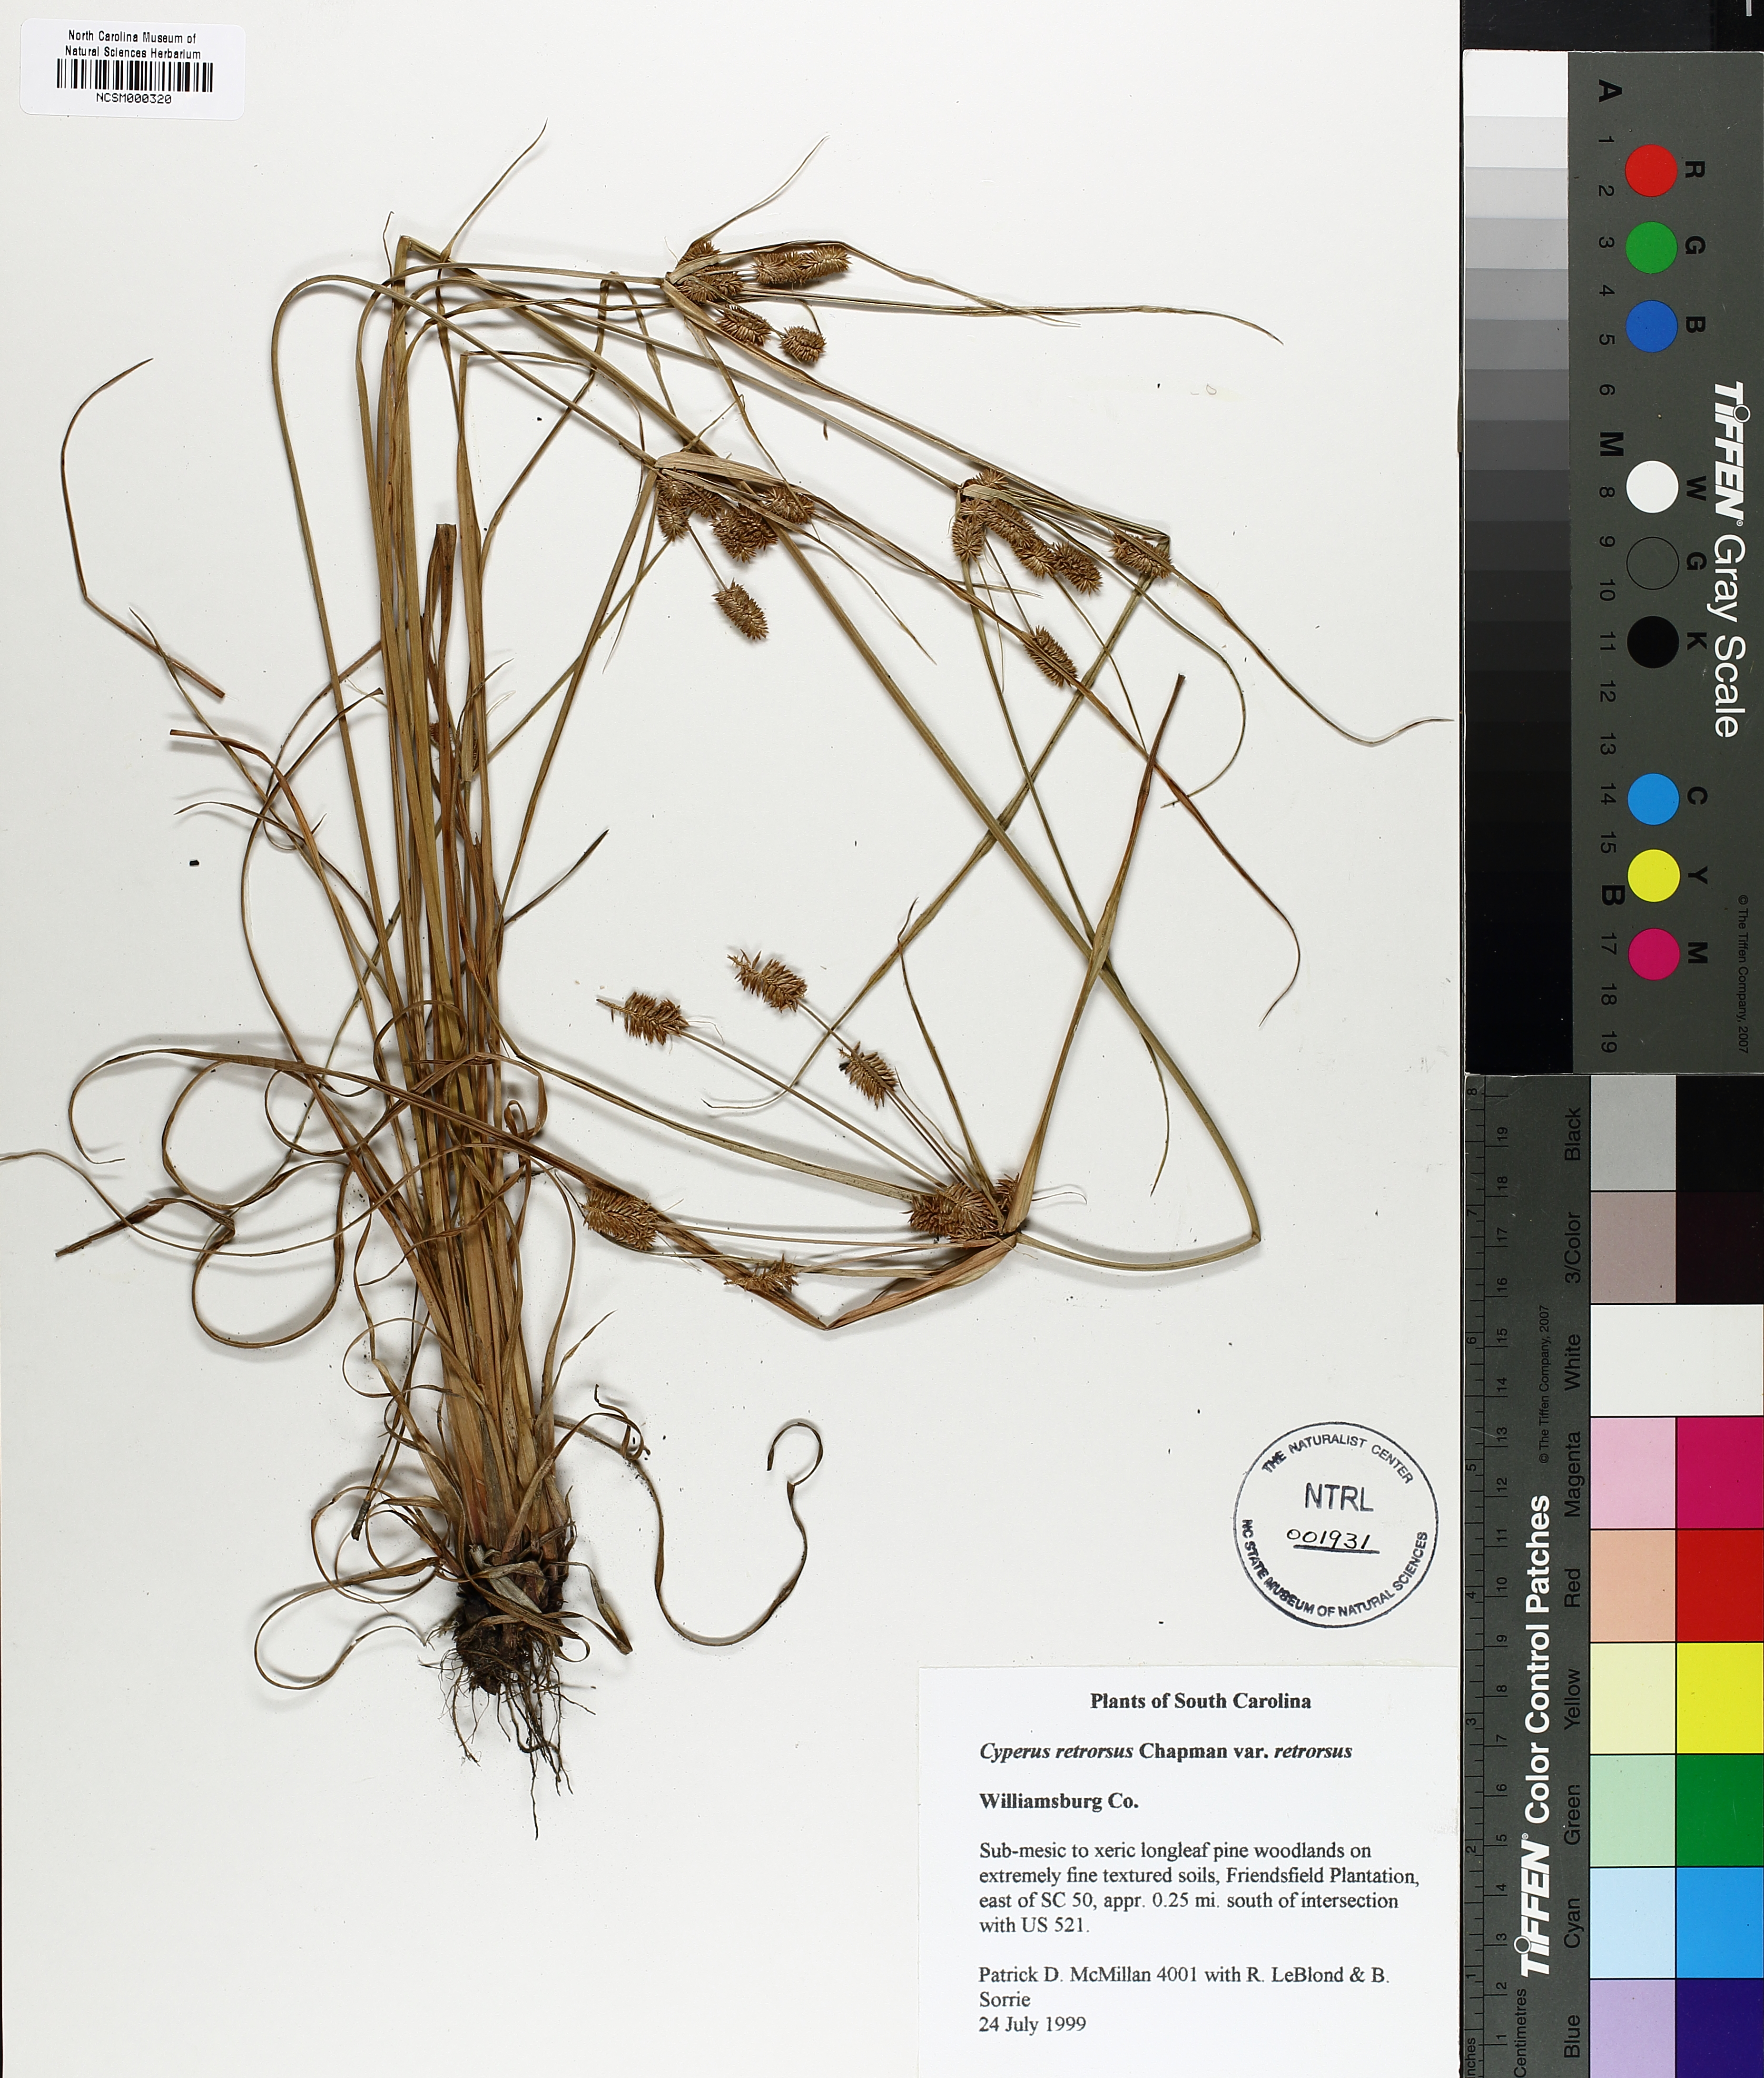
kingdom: Plantae
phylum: Tracheophyta
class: Liliopsida
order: Poales
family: Cyperaceae
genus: Cyperus
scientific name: Cyperus retrorsus
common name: Pinebarren flat sedge
